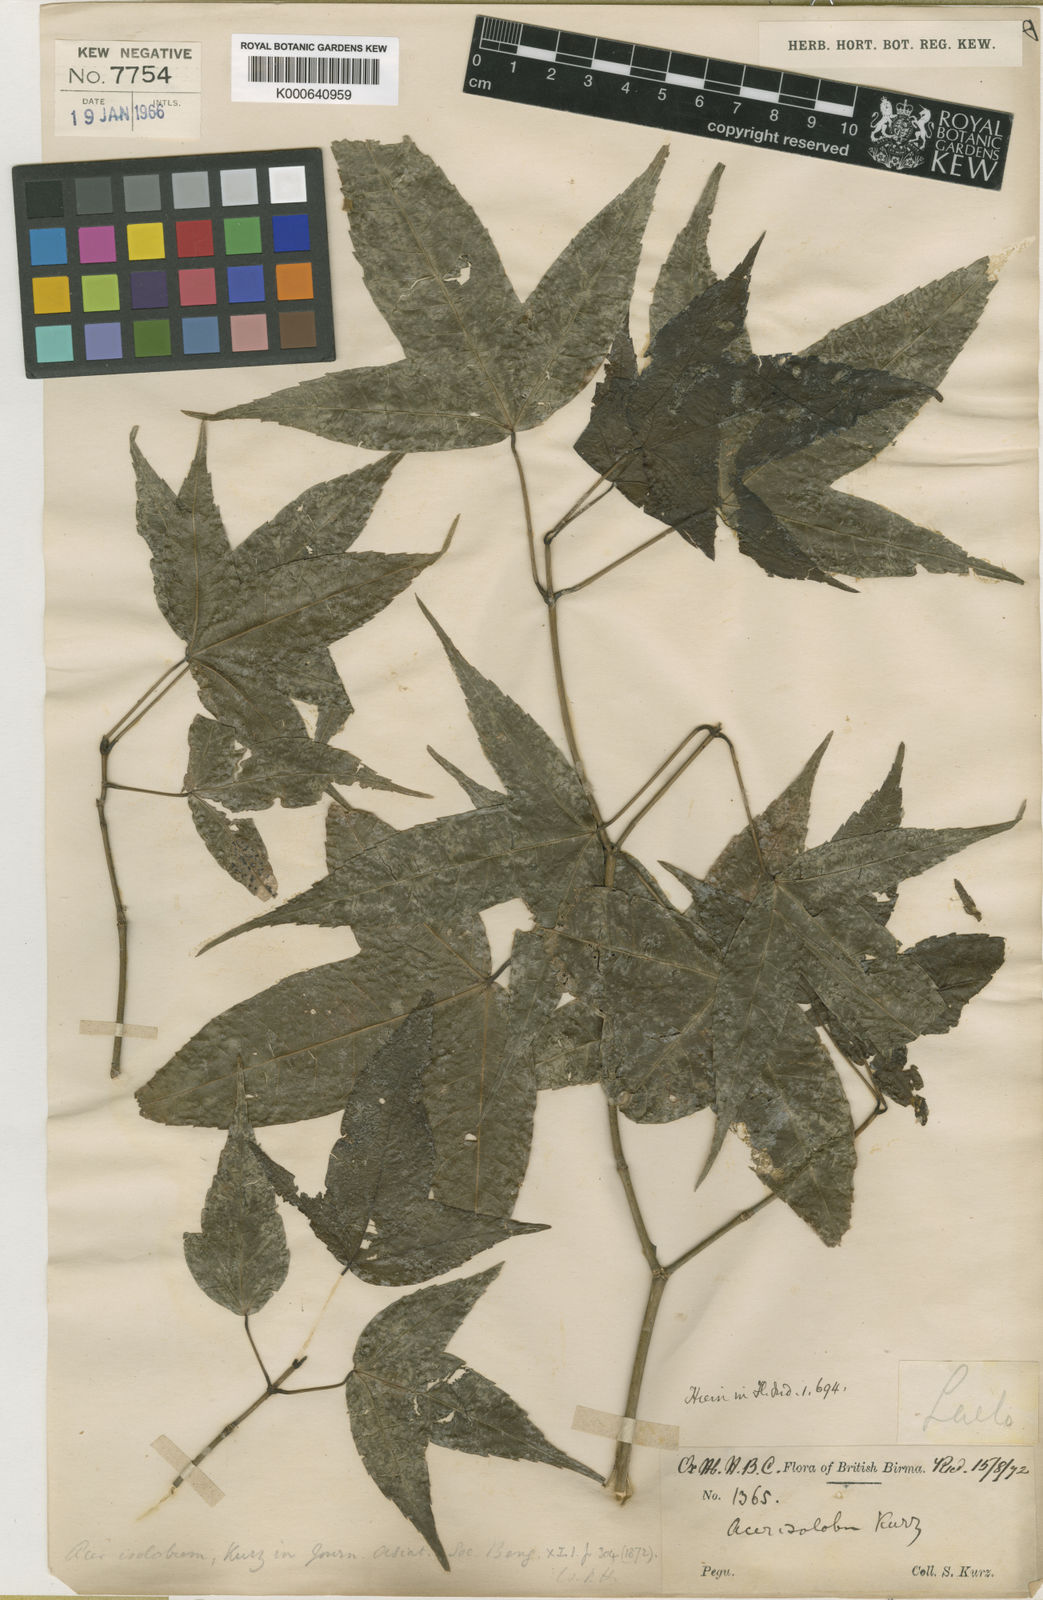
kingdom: Plantae
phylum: Tracheophyta
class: Magnoliopsida
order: Sapindales
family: Sapindaceae
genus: Acer
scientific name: Acer
